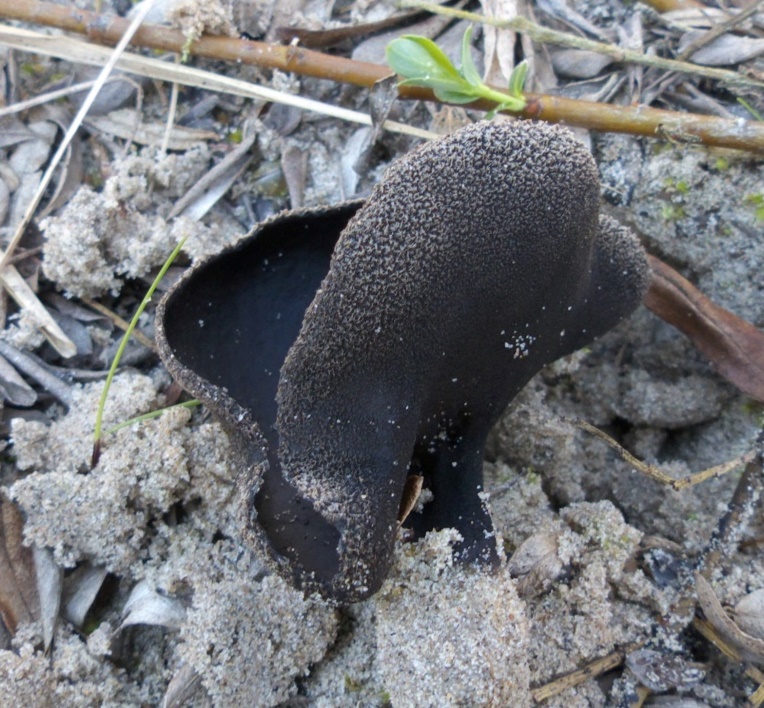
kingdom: Fungi
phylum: Ascomycota
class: Pezizomycetes
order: Pezizales
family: Helvellaceae
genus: Helvella
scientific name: Helvella corium
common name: pile-foldhat
